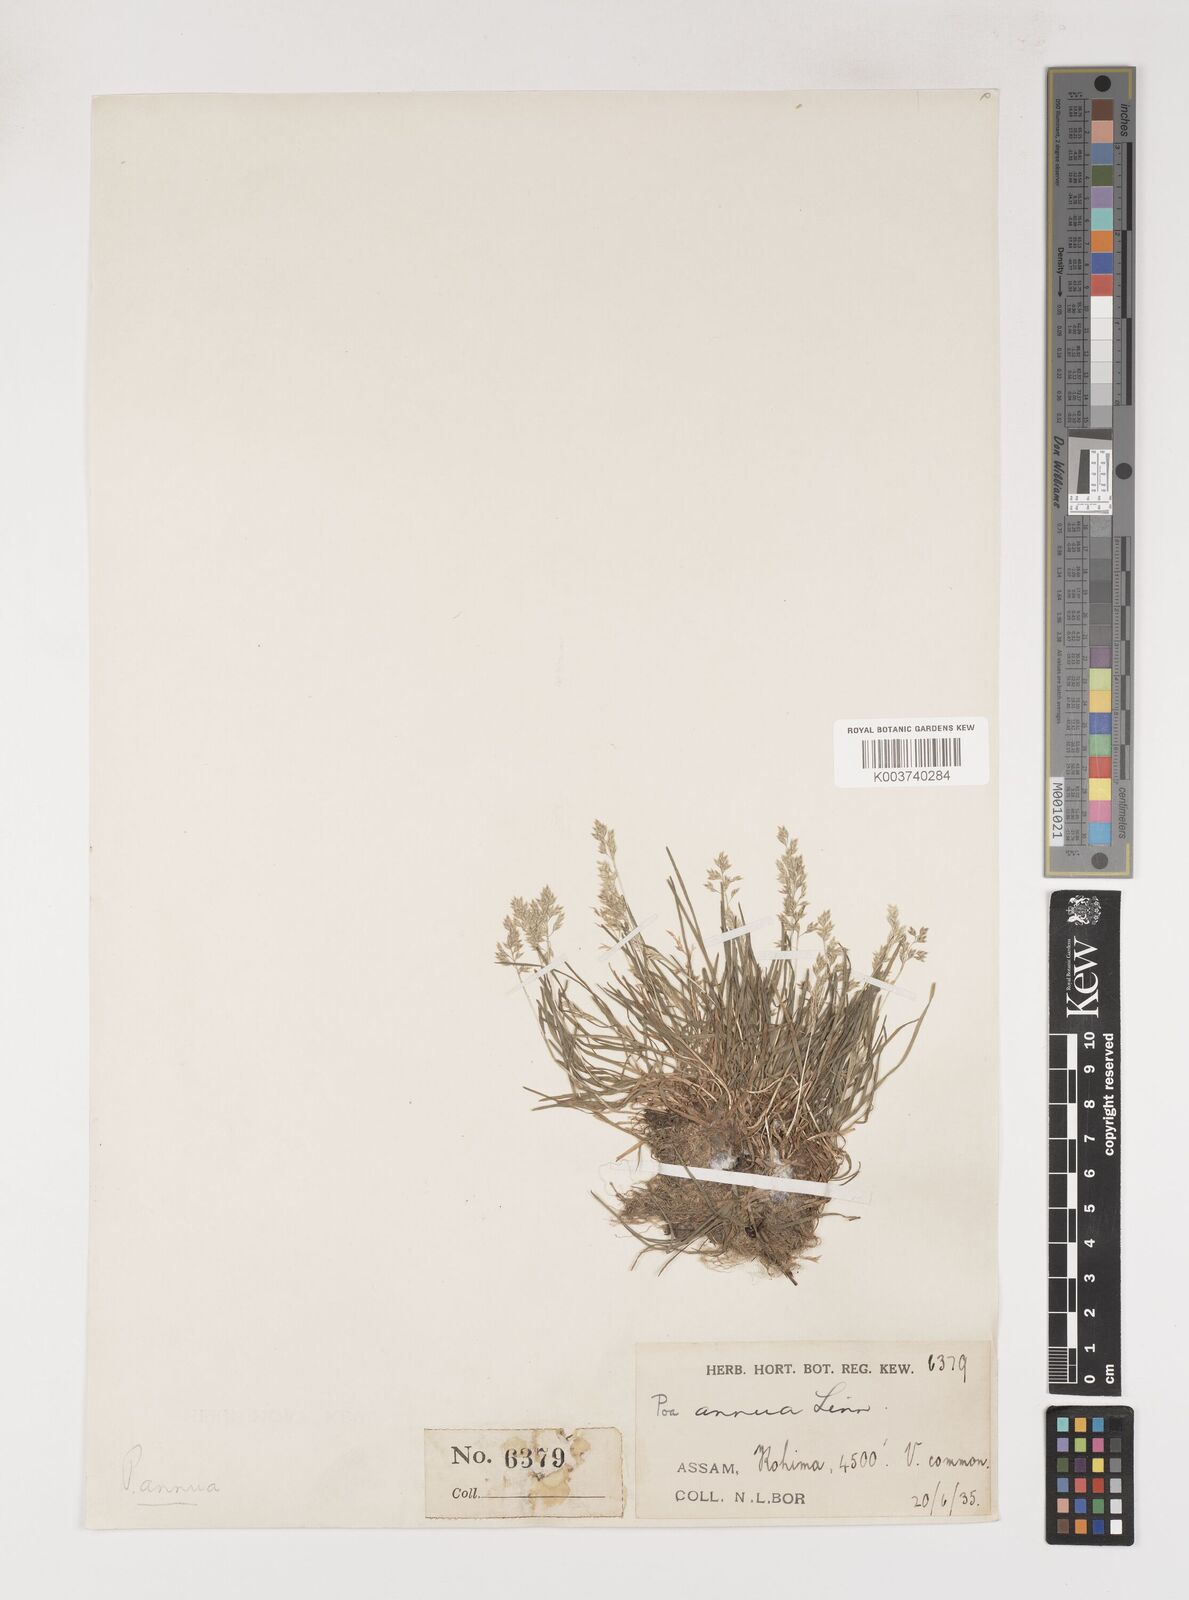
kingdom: Plantae
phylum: Tracheophyta
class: Liliopsida
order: Poales
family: Poaceae
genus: Poa
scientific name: Poa annua
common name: Annual bluegrass
